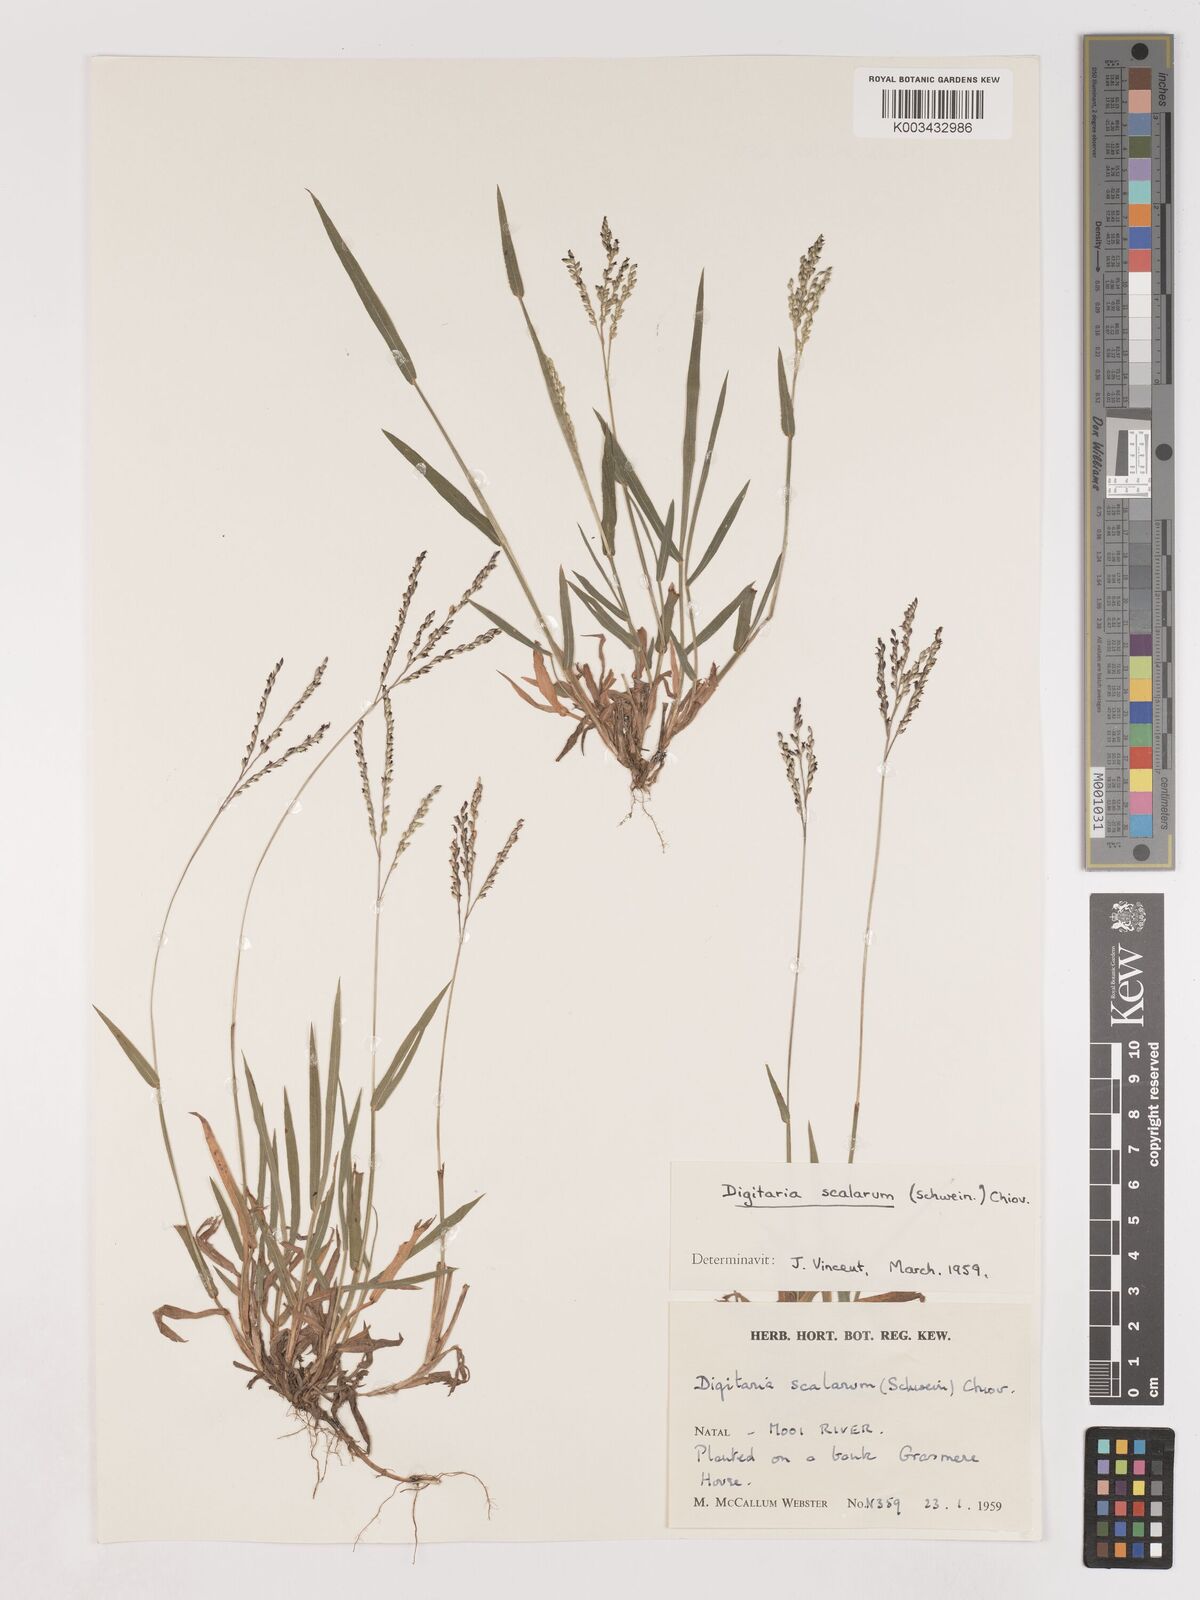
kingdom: Plantae
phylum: Tracheophyta
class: Liliopsida
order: Poales
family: Poaceae
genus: Digitaria
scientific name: Digitaria abyssinica
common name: African couchgrass
